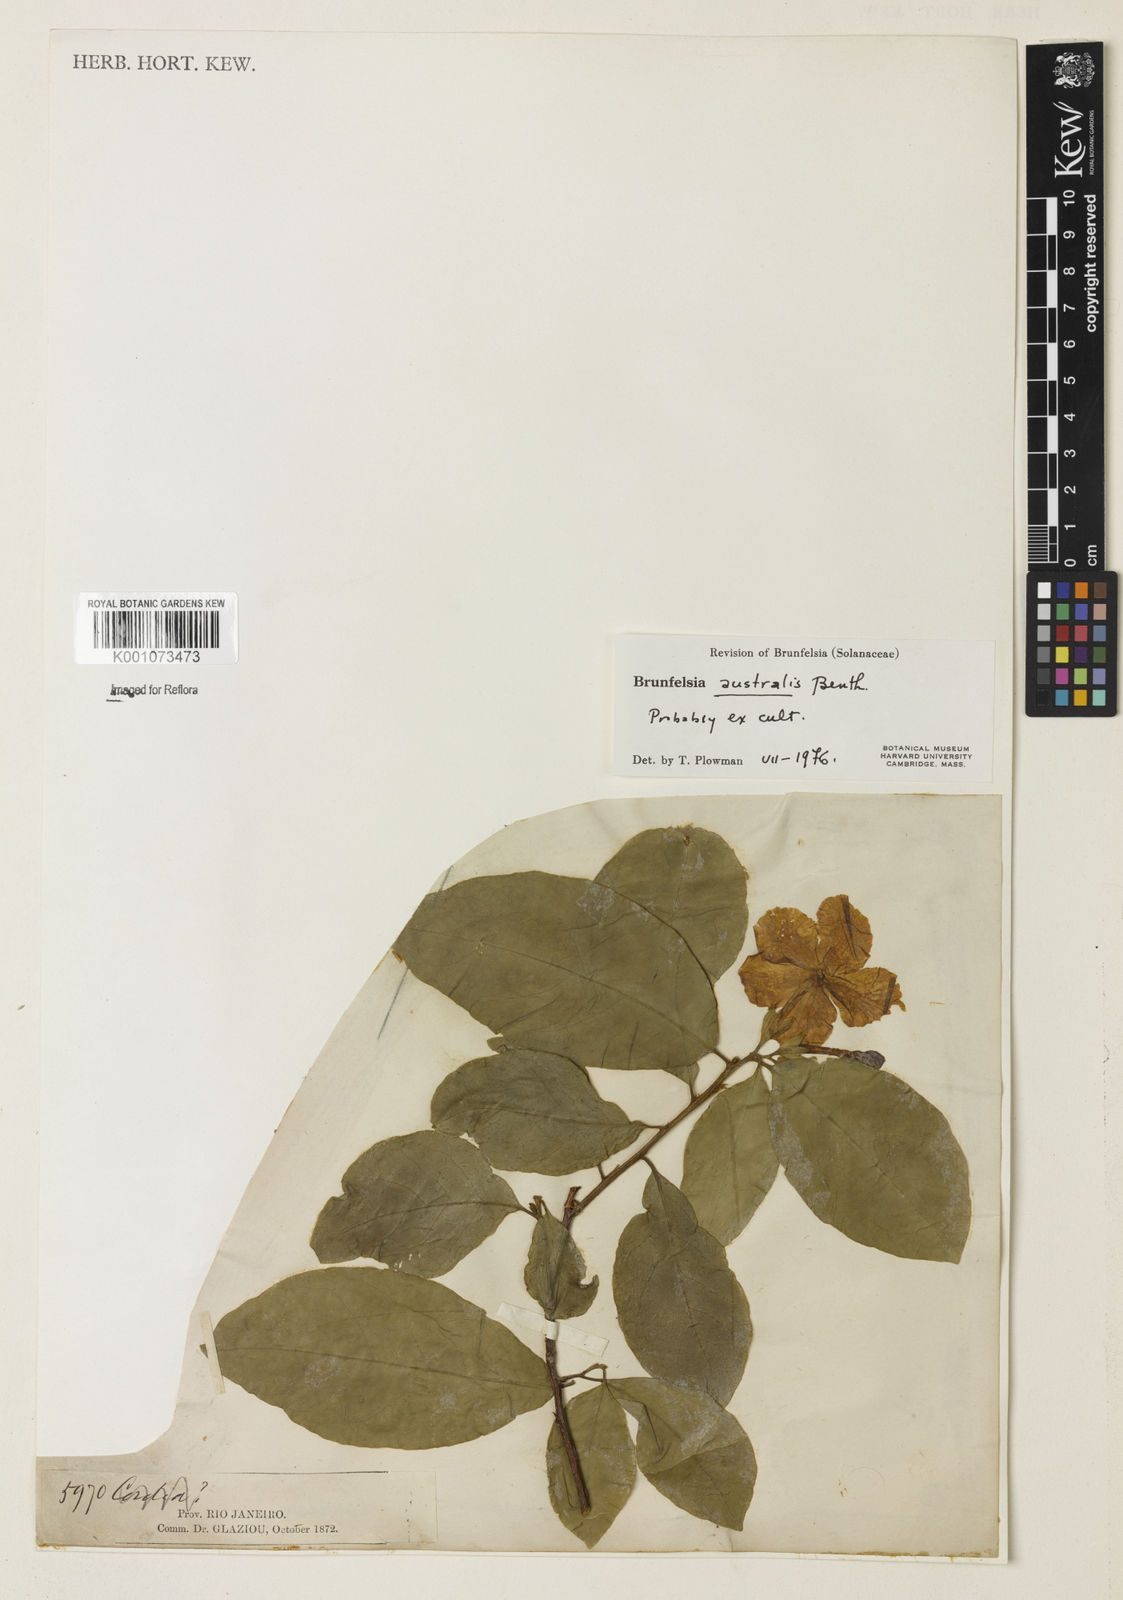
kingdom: Plantae
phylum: Tracheophyta
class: Magnoliopsida
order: Solanales
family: Solanaceae
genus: Brunfelsia
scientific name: Brunfelsia australis
